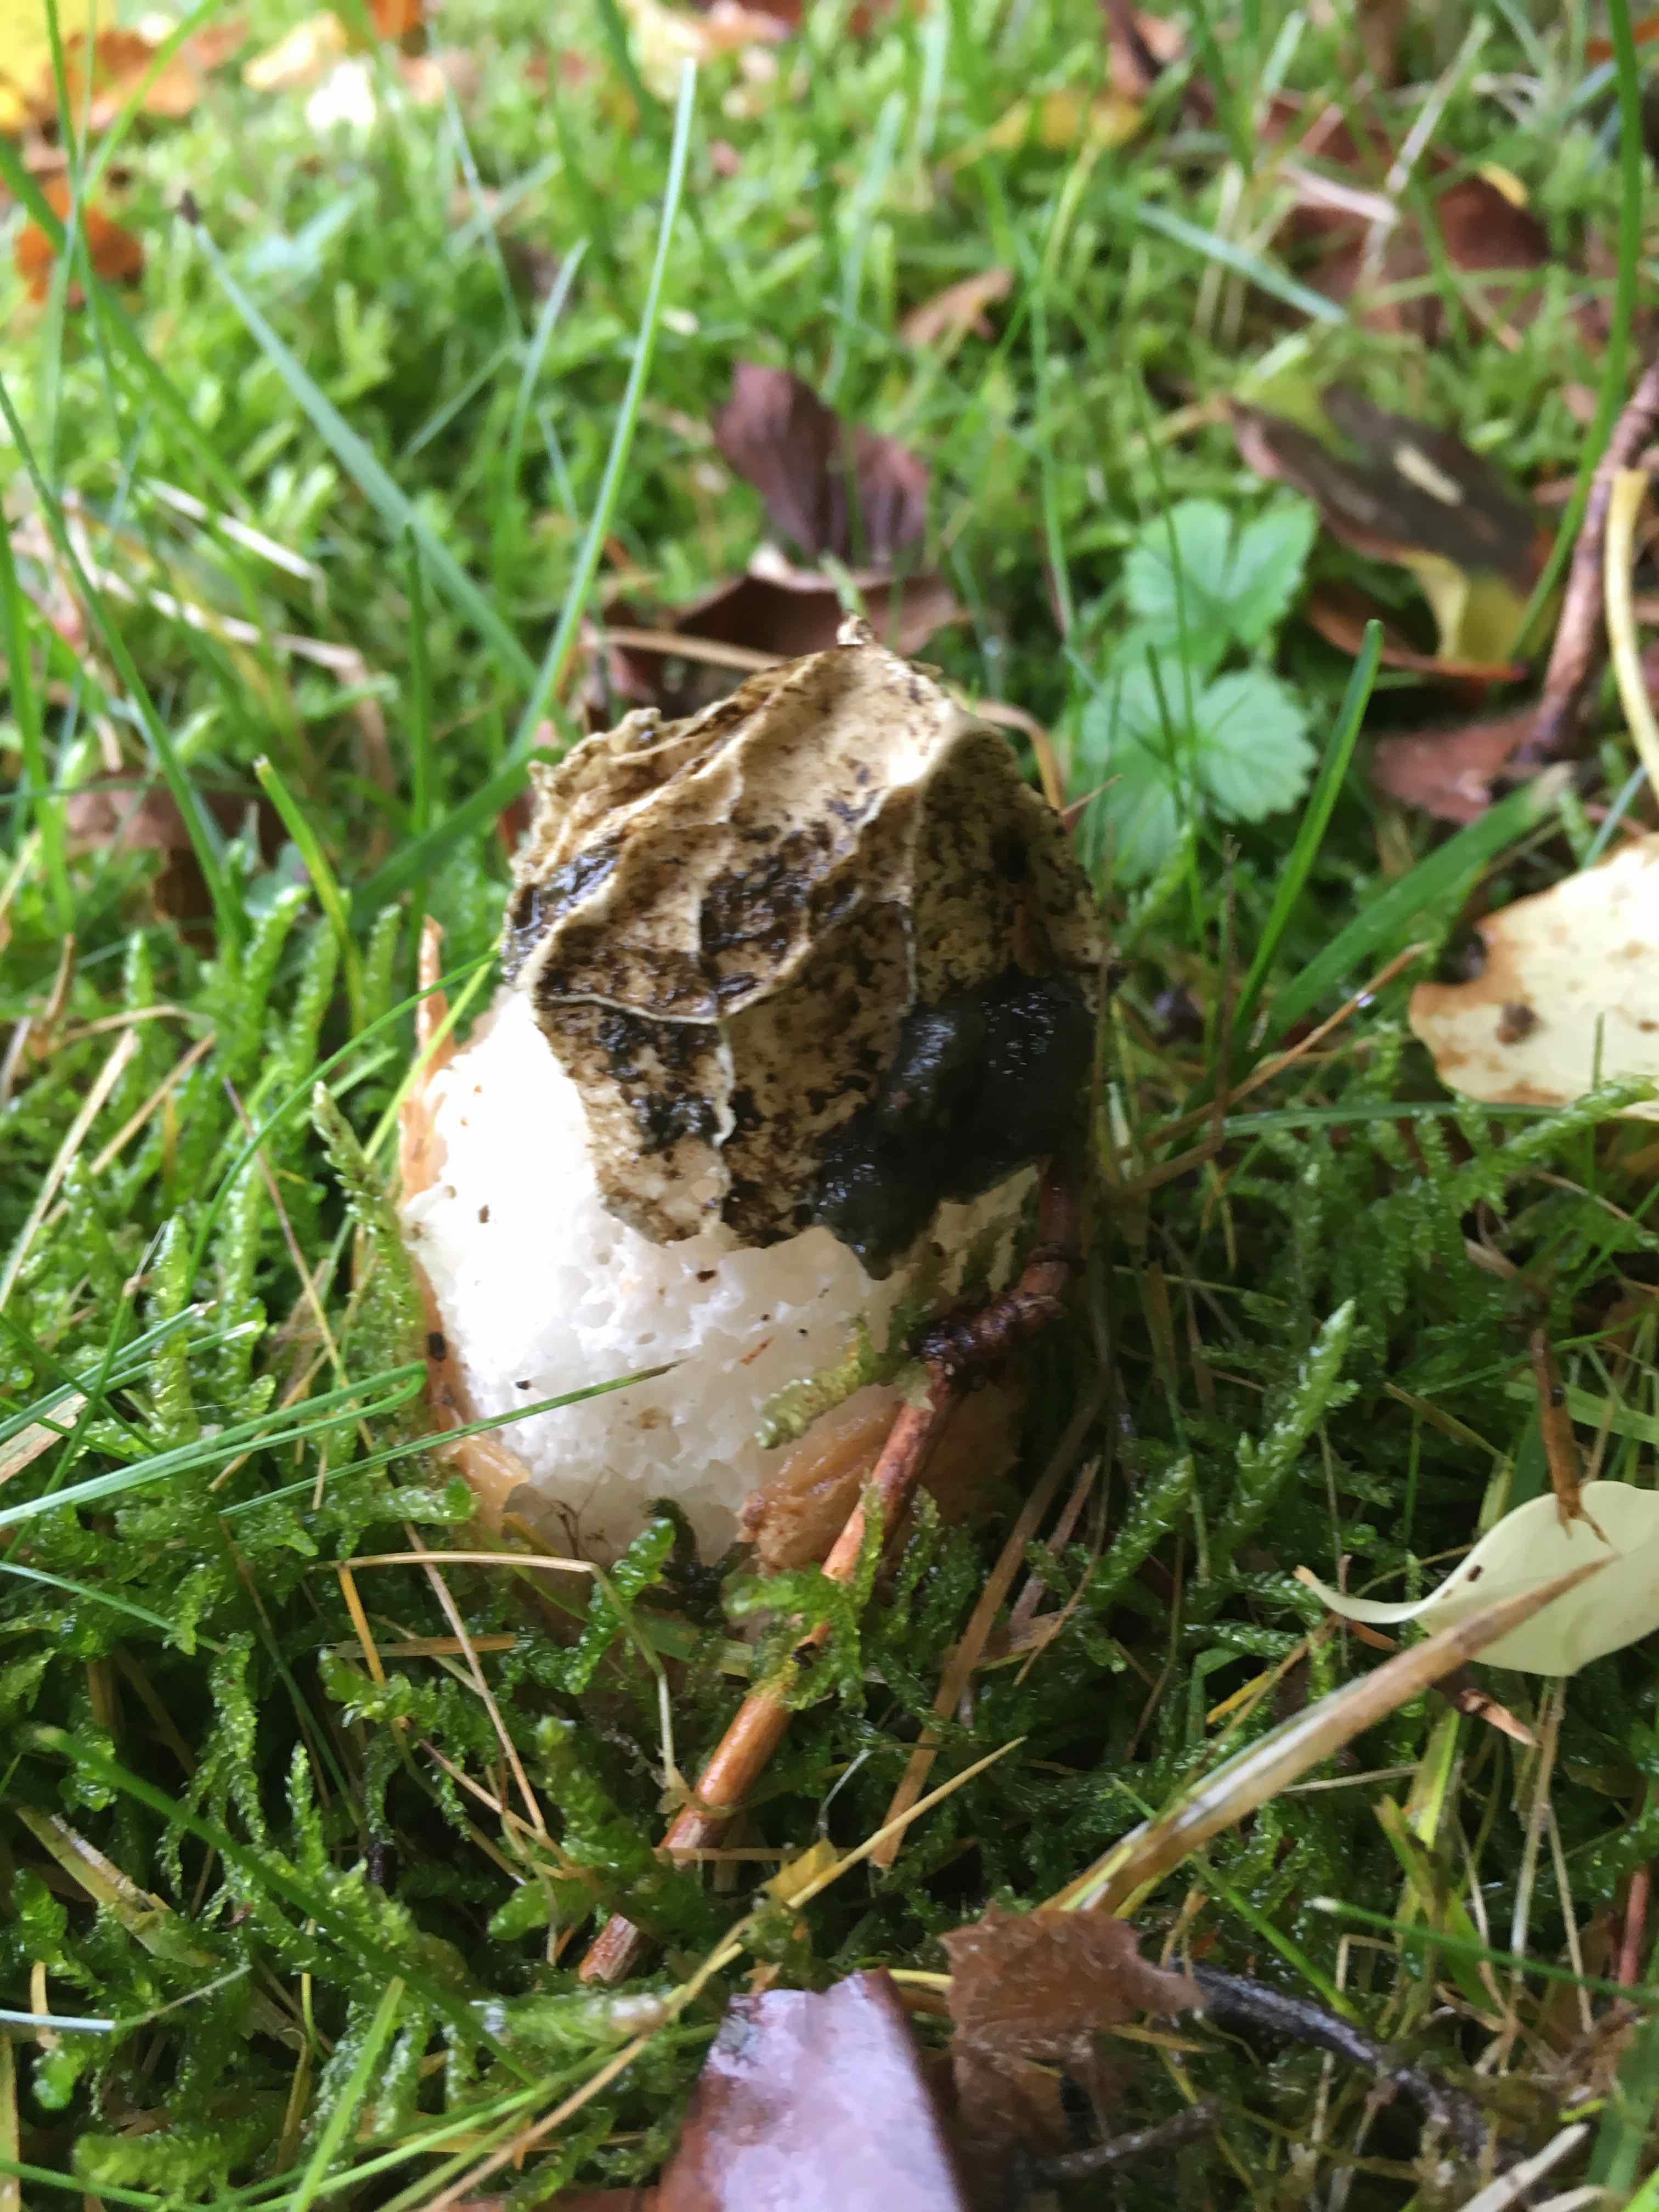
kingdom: Fungi
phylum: Basidiomycota
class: Agaricomycetes
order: Phallales
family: Phallaceae
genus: Phallus
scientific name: Phallus impudicus
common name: almindelig stinksvamp
